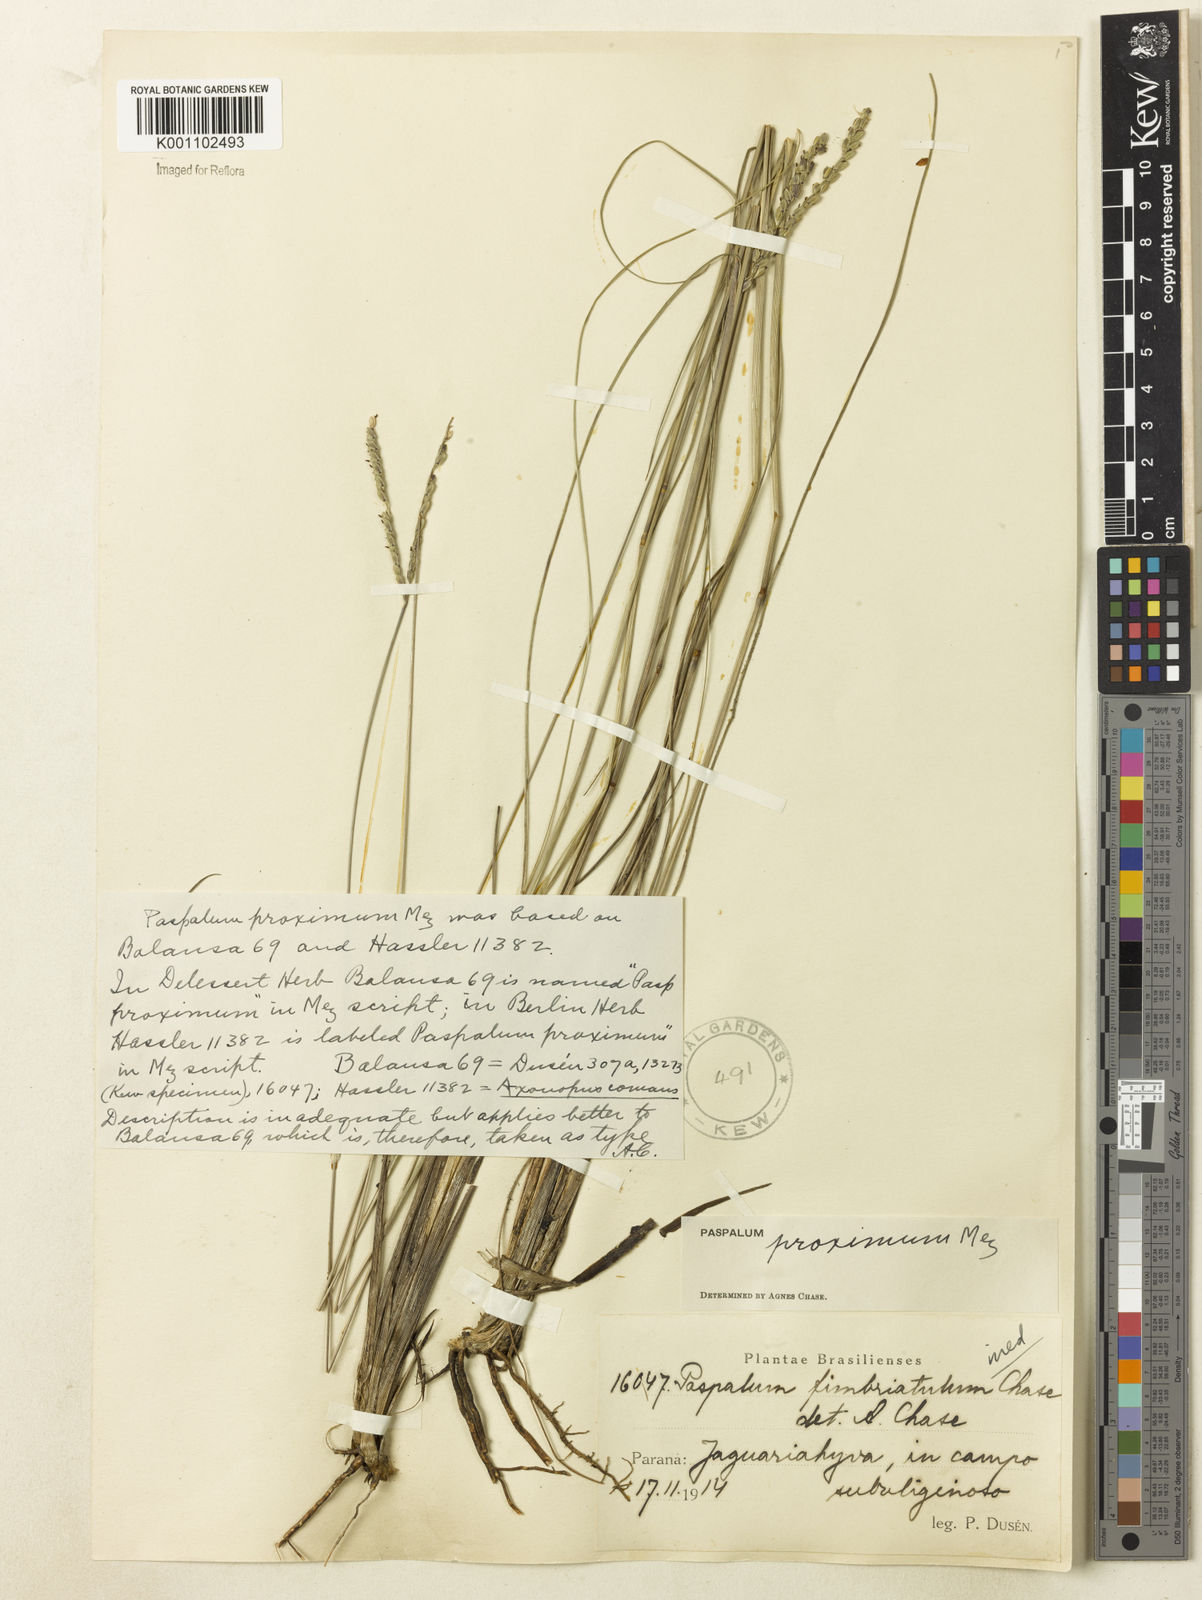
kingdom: Plantae
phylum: Tracheophyta
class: Liliopsida
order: Poales
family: Poaceae
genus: Paspalum
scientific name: Paspalum ellipticum
